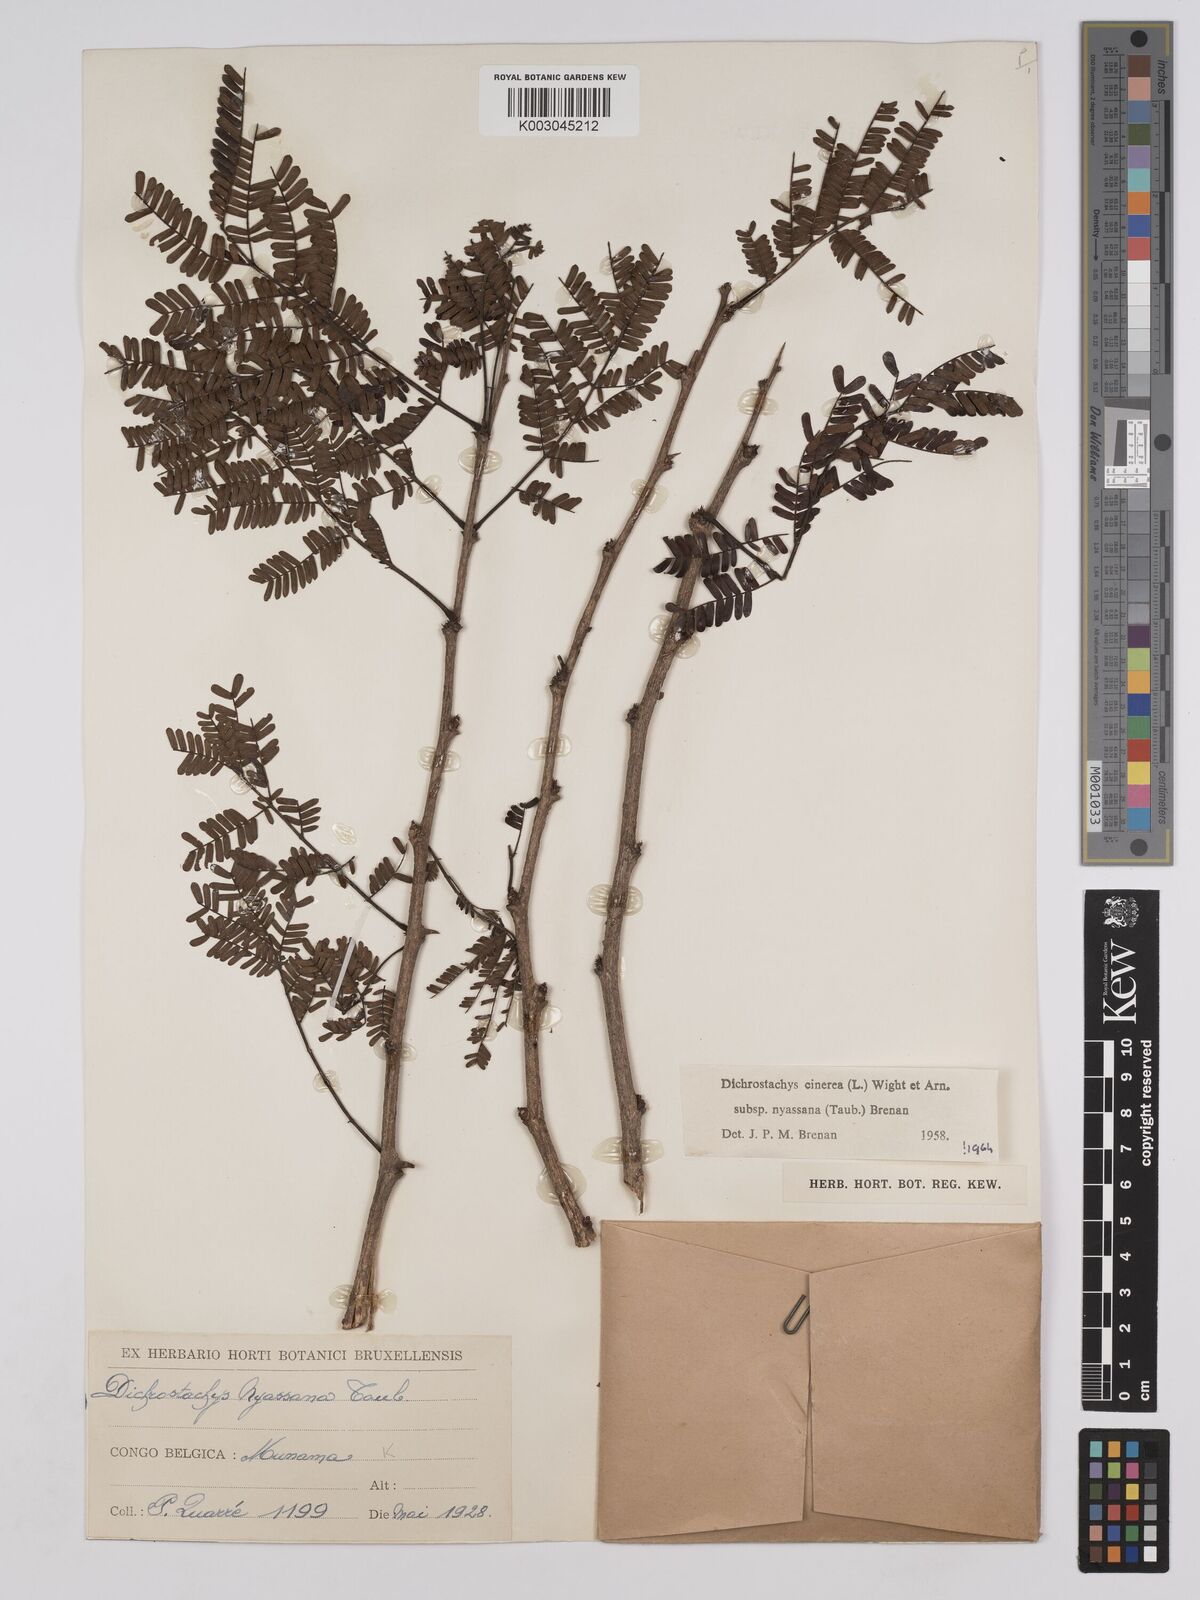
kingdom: Plantae
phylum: Tracheophyta
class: Magnoliopsida
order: Fabales
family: Fabaceae
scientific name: Fabaceae
